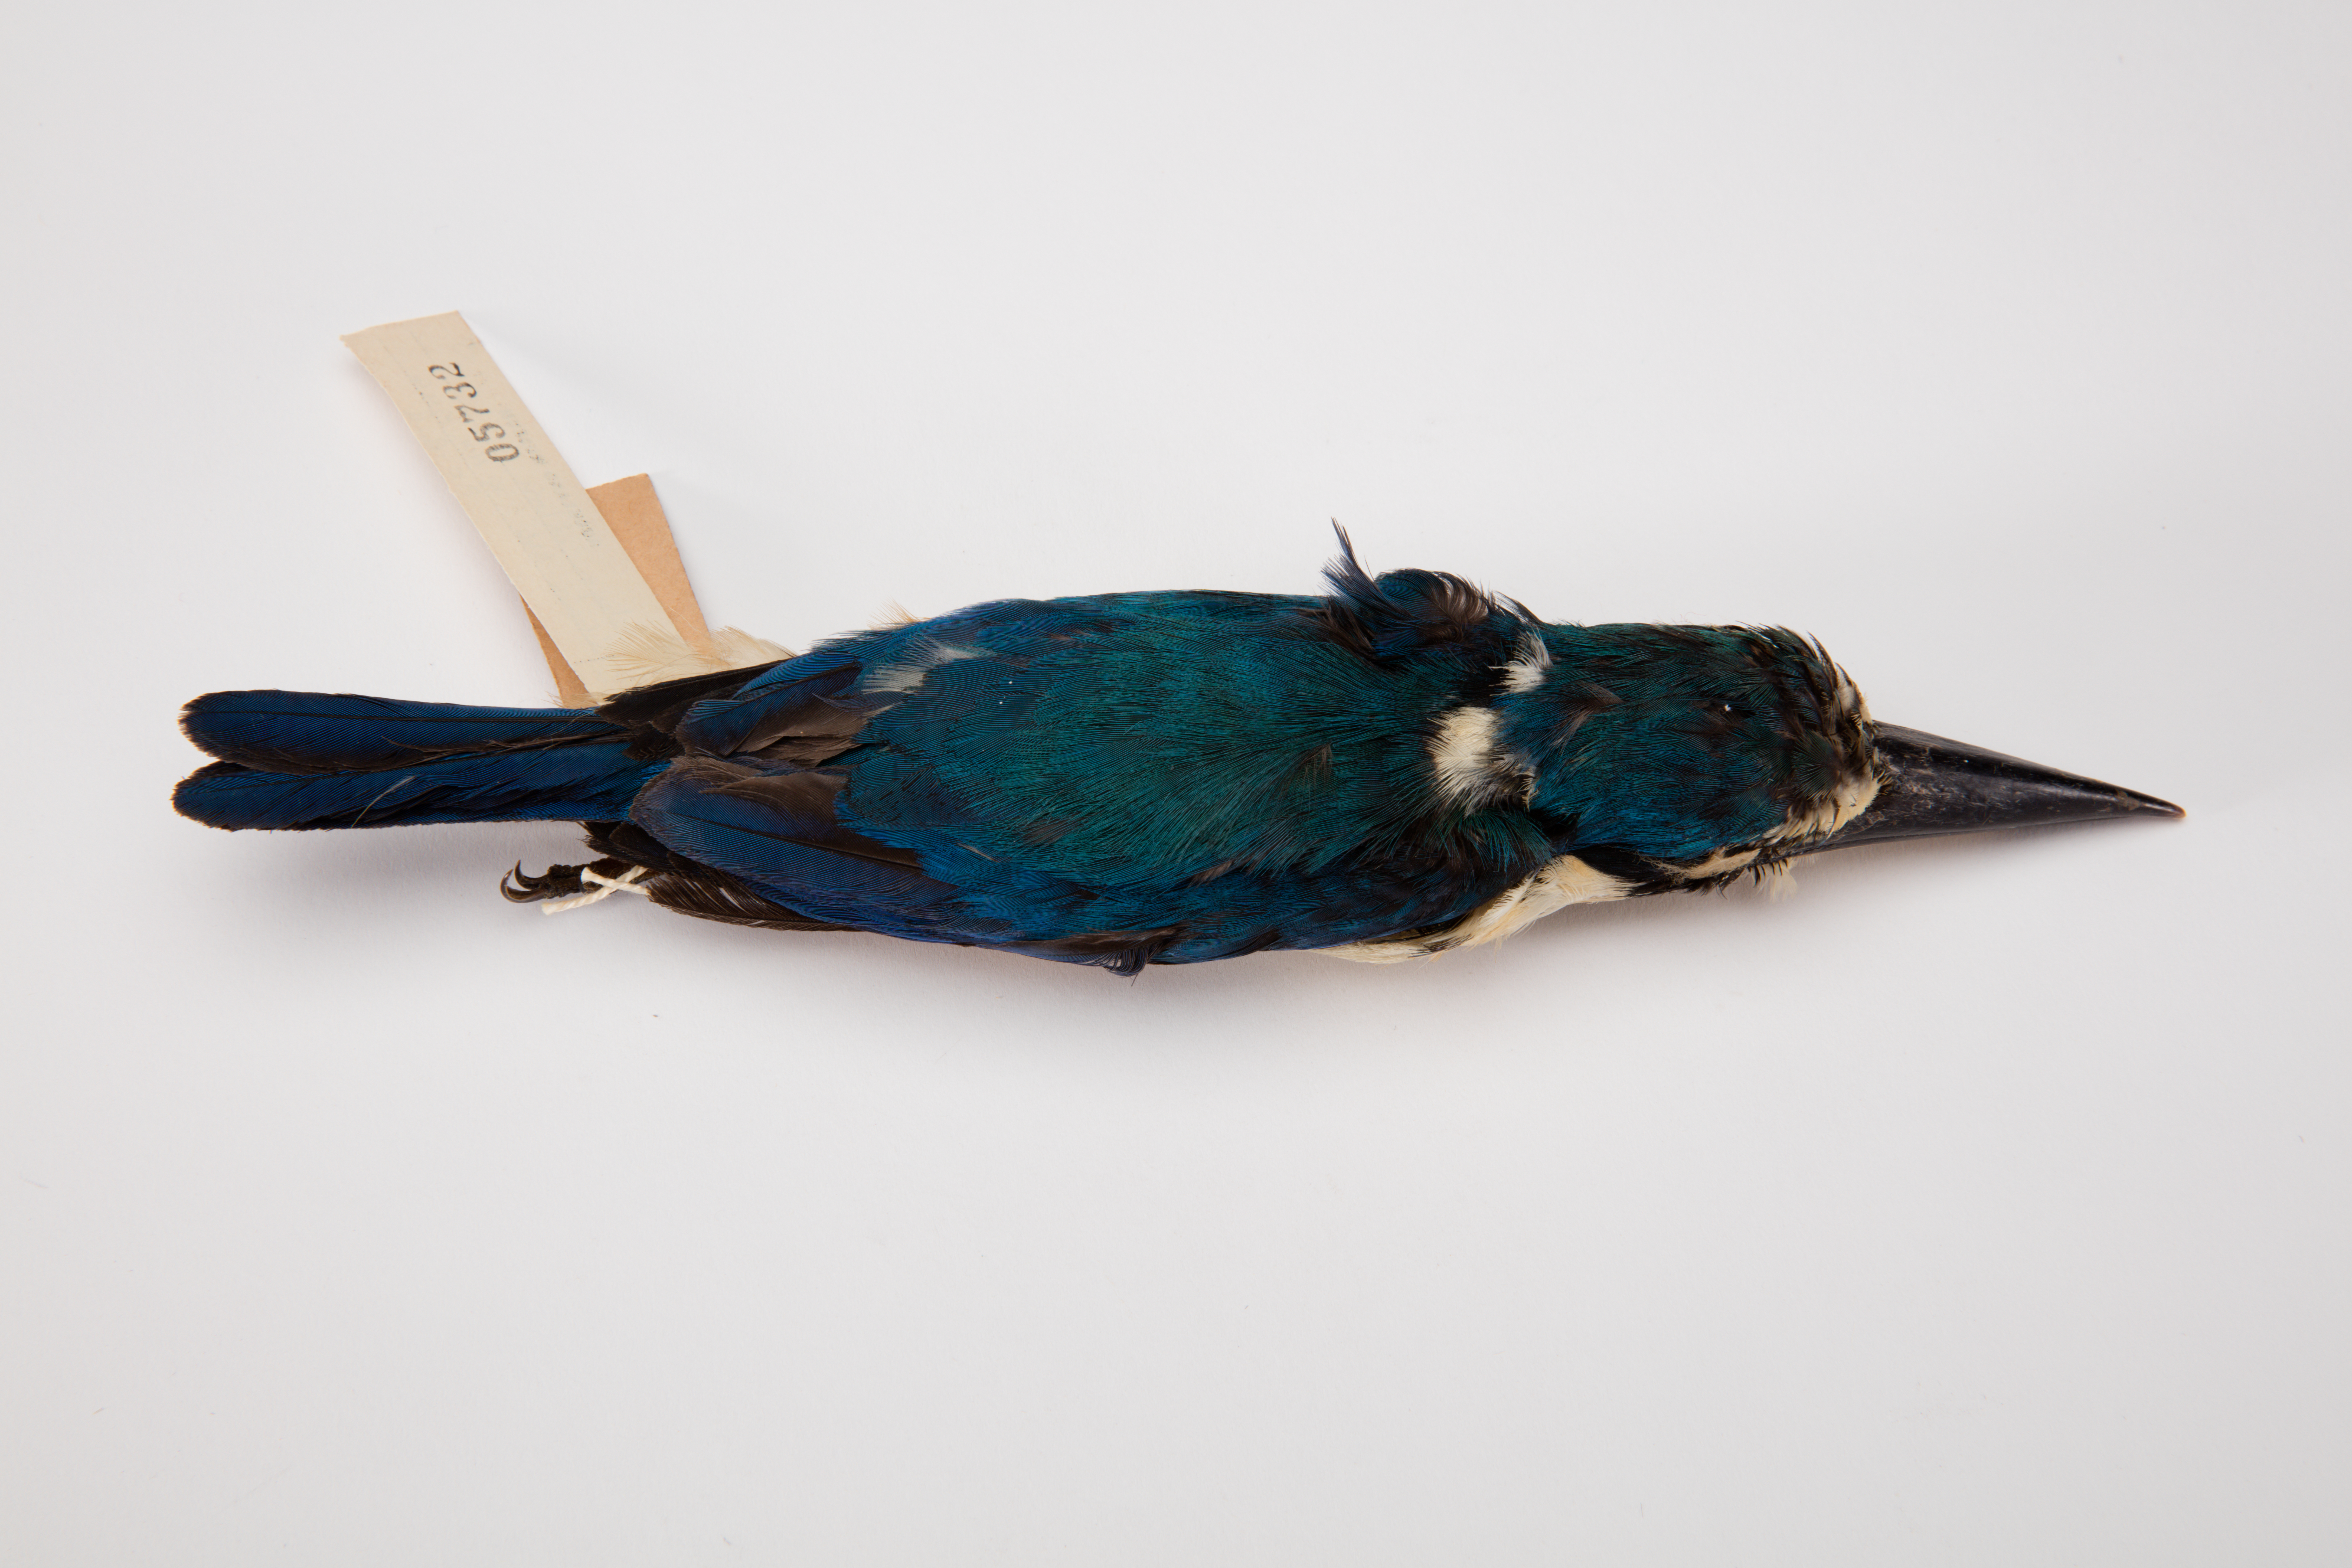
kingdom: Animalia
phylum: Chordata
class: Aves
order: Coraciiformes
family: Alcedinidae
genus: Todiramphus
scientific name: Todiramphus chloris
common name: Collared kingfisher
